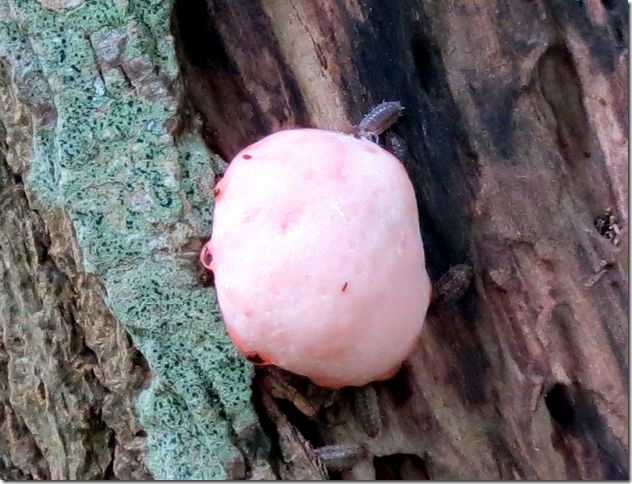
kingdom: Protozoa
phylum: Mycetozoa
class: Myxomycetes
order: Cribrariales
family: Tubiferaceae
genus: Reticularia
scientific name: Reticularia jurana
